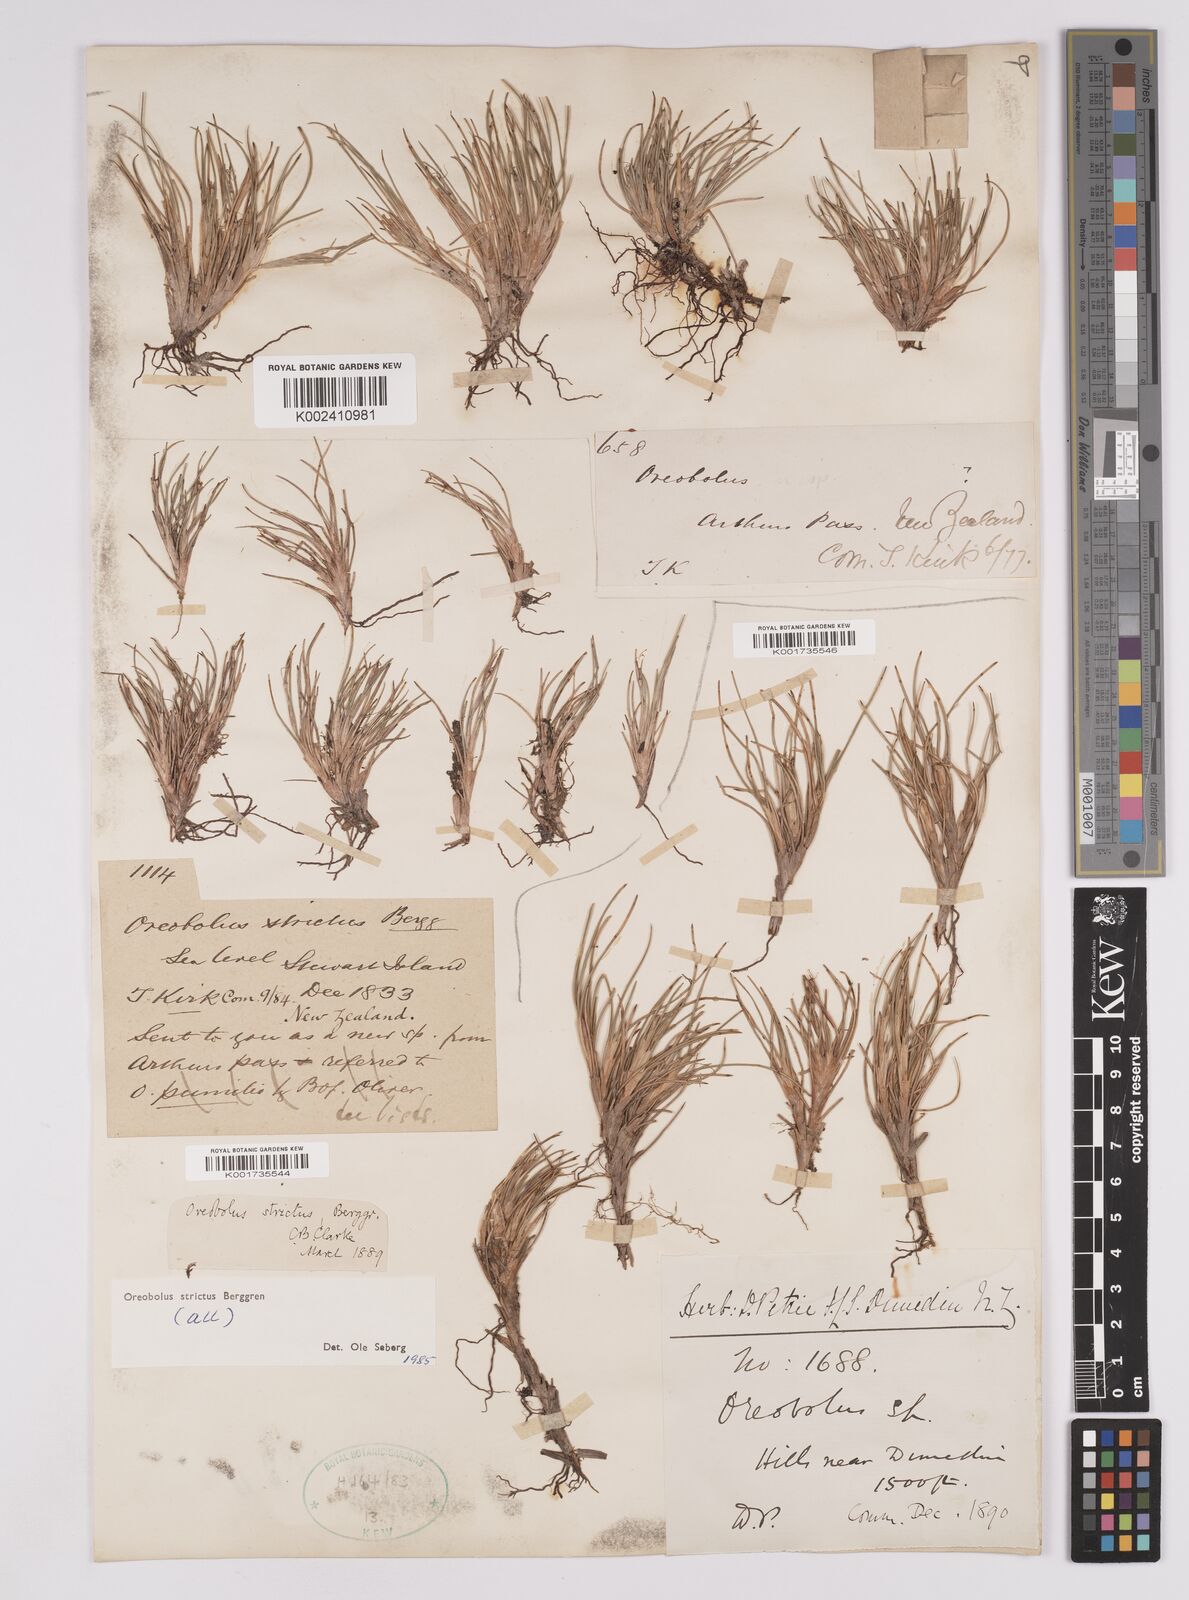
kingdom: Plantae
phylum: Tracheophyta
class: Liliopsida
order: Poales
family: Cyperaceae
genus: Oreobolus
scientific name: Oreobolus strictus
